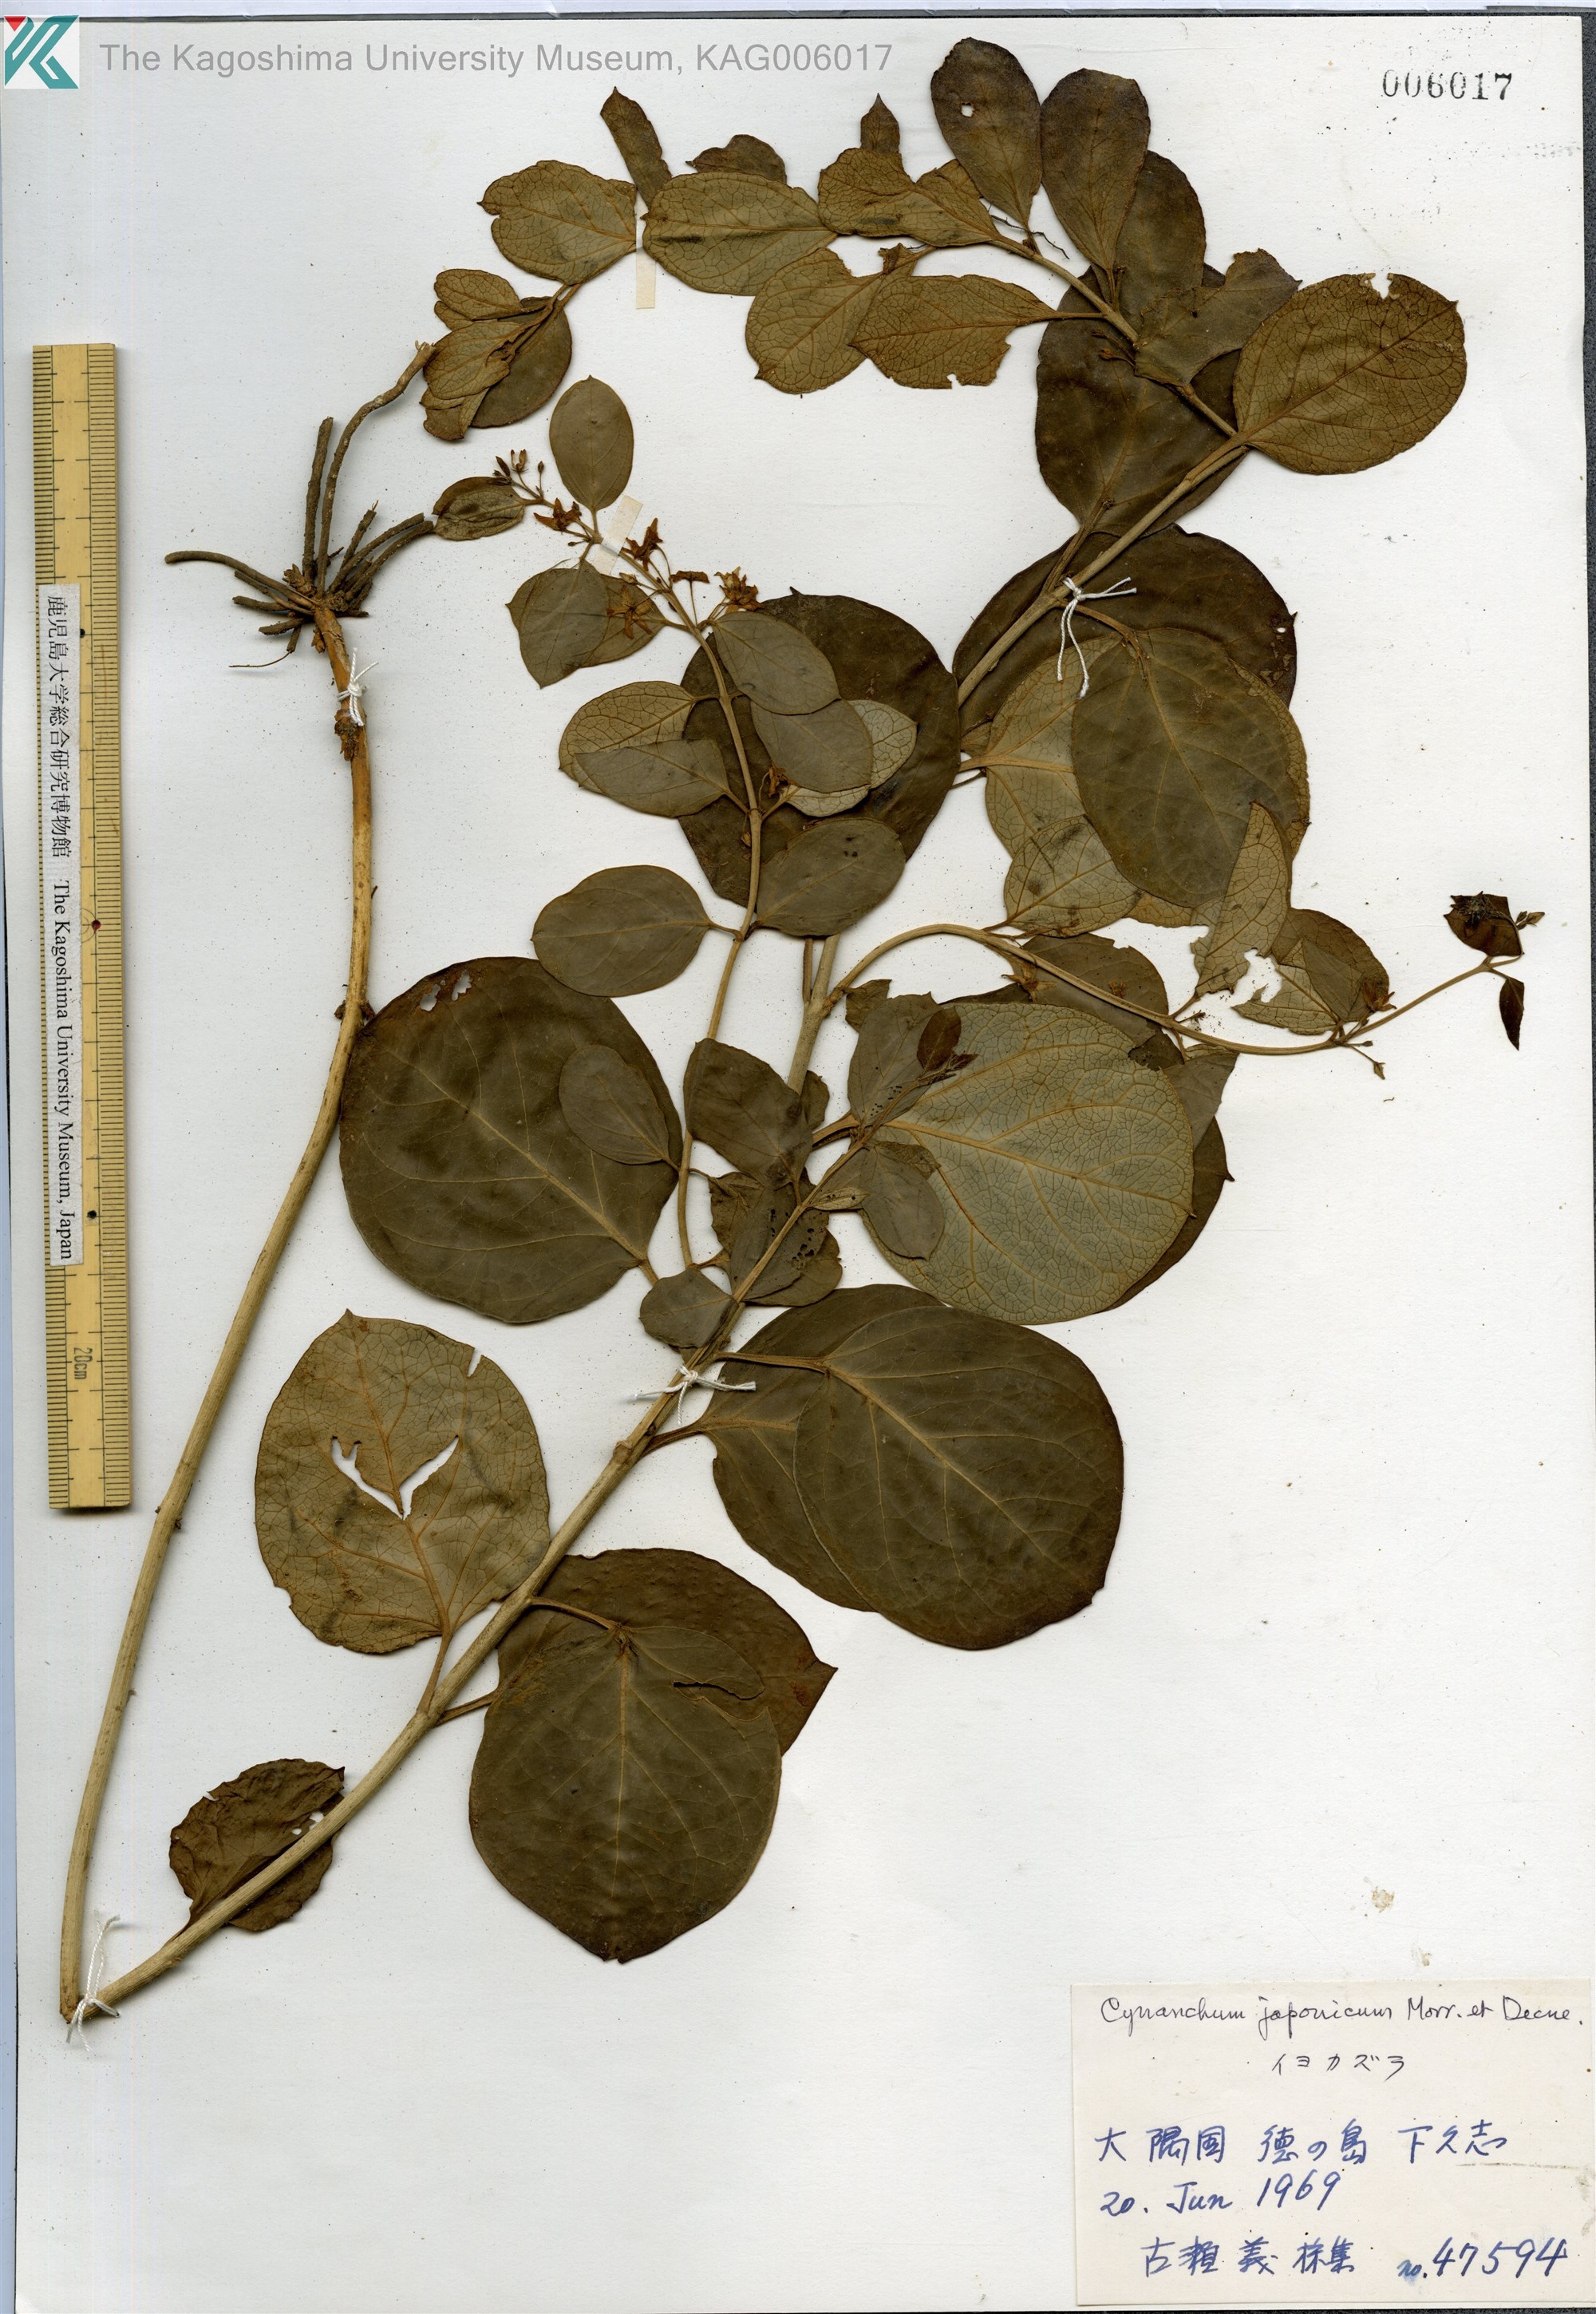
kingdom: Plantae
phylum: Tracheophyta
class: Magnoliopsida
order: Gentianales
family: Apocynaceae
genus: Vincetoxicum
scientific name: Vincetoxicum japonicum
